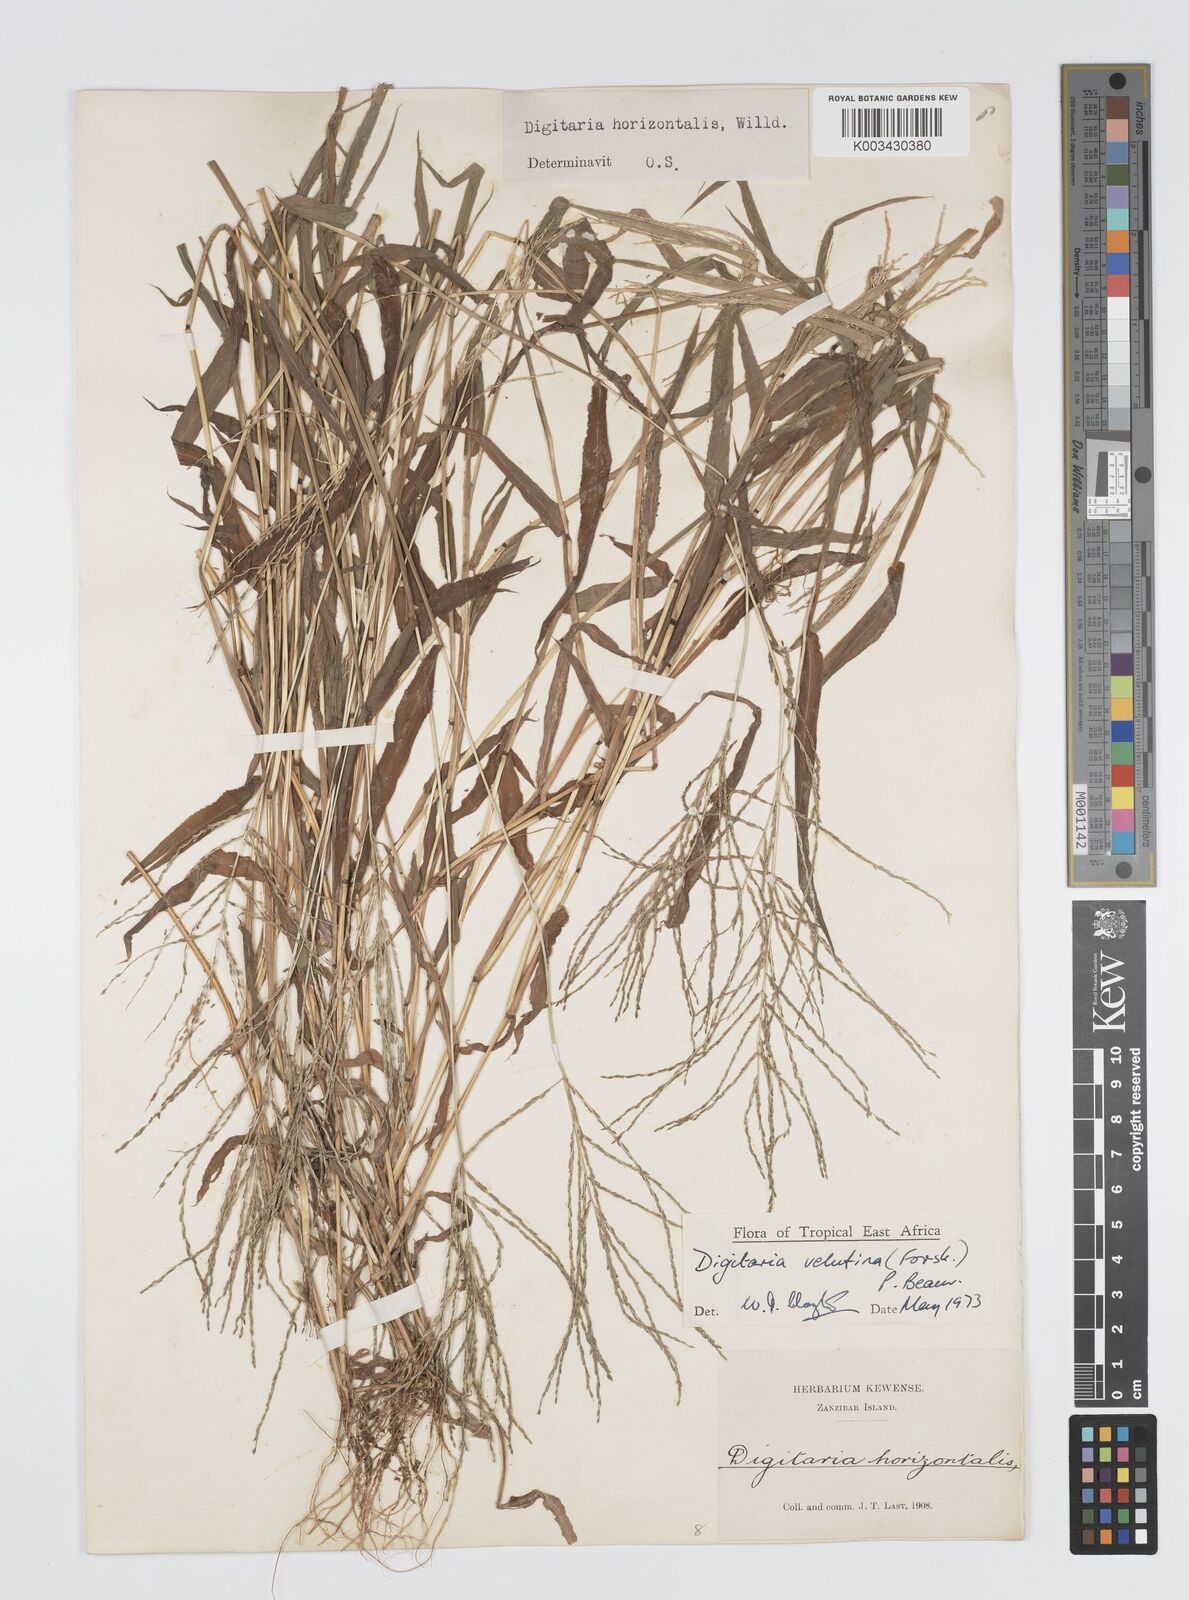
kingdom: Plantae
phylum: Tracheophyta
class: Liliopsida
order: Poales
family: Poaceae
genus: Digitaria
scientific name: Digitaria velutina
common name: Long-plume finger grass
